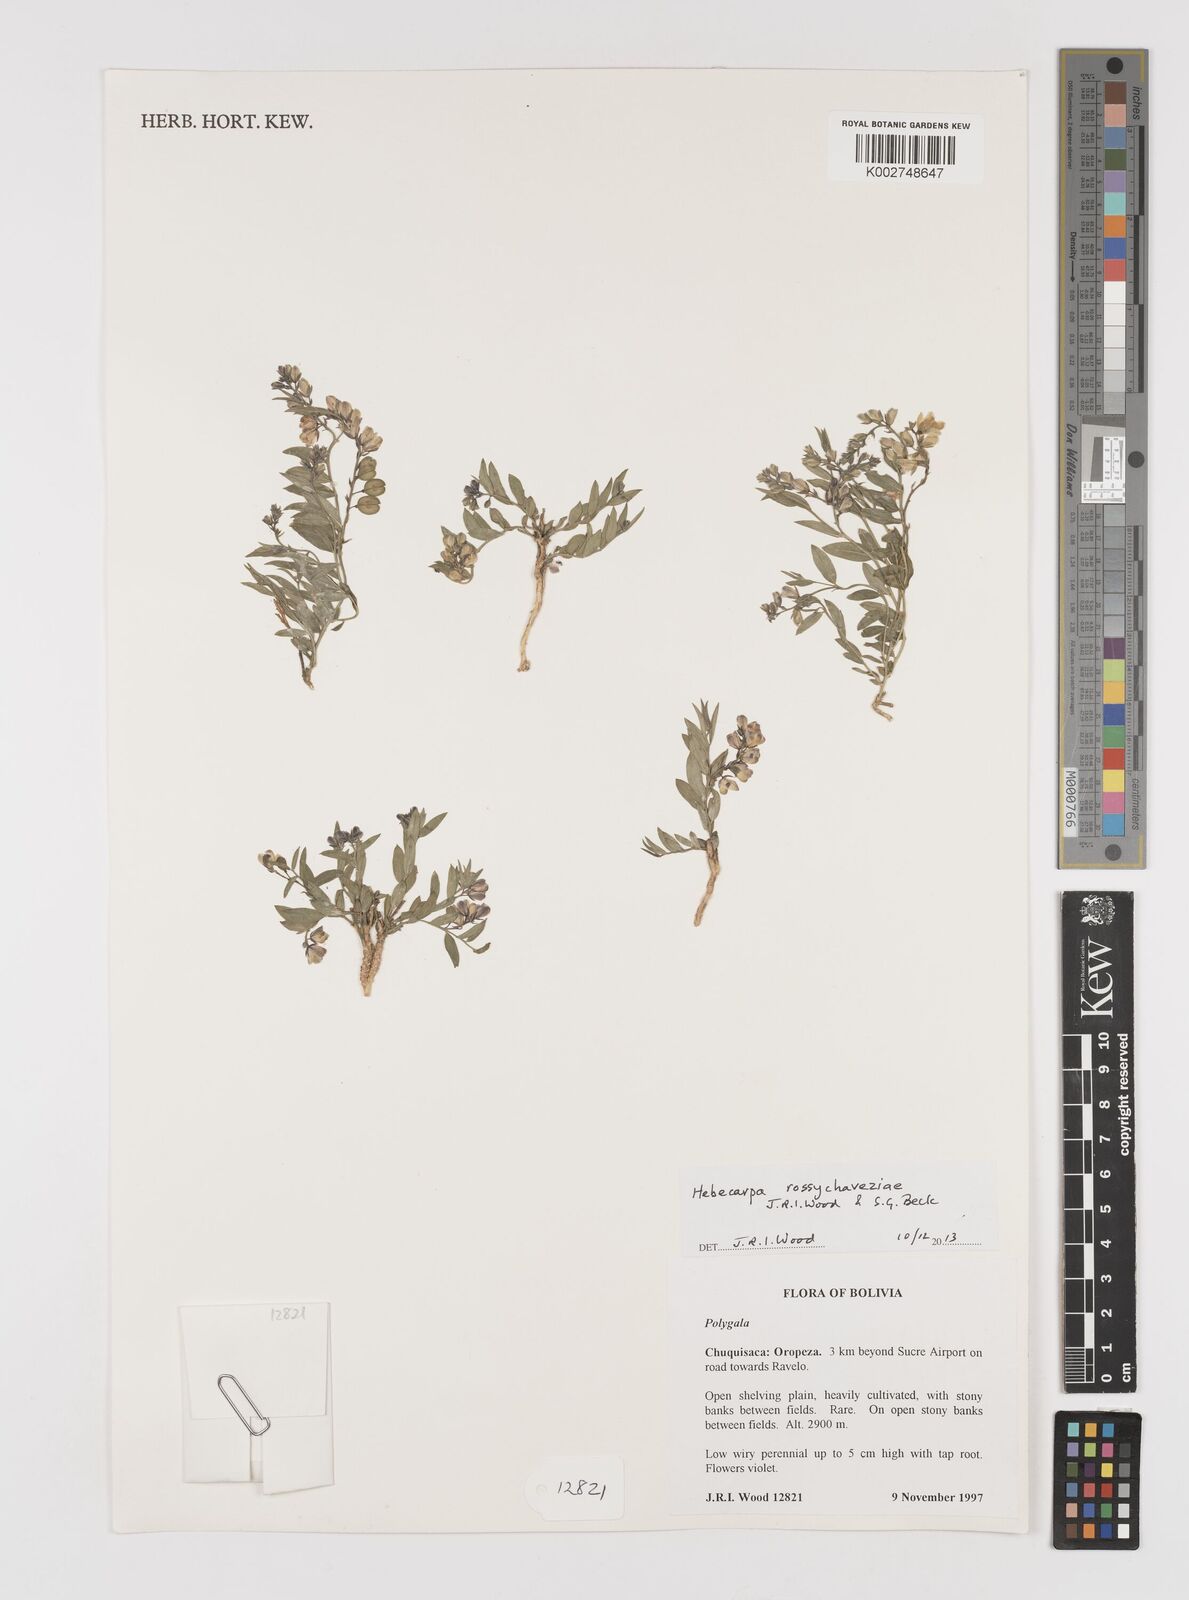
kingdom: Plantae
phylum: Tracheophyta
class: Magnoliopsida
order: Fabales
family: Polygalaceae
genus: Hebecarpa
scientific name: Hebecarpa rossychaveziae
